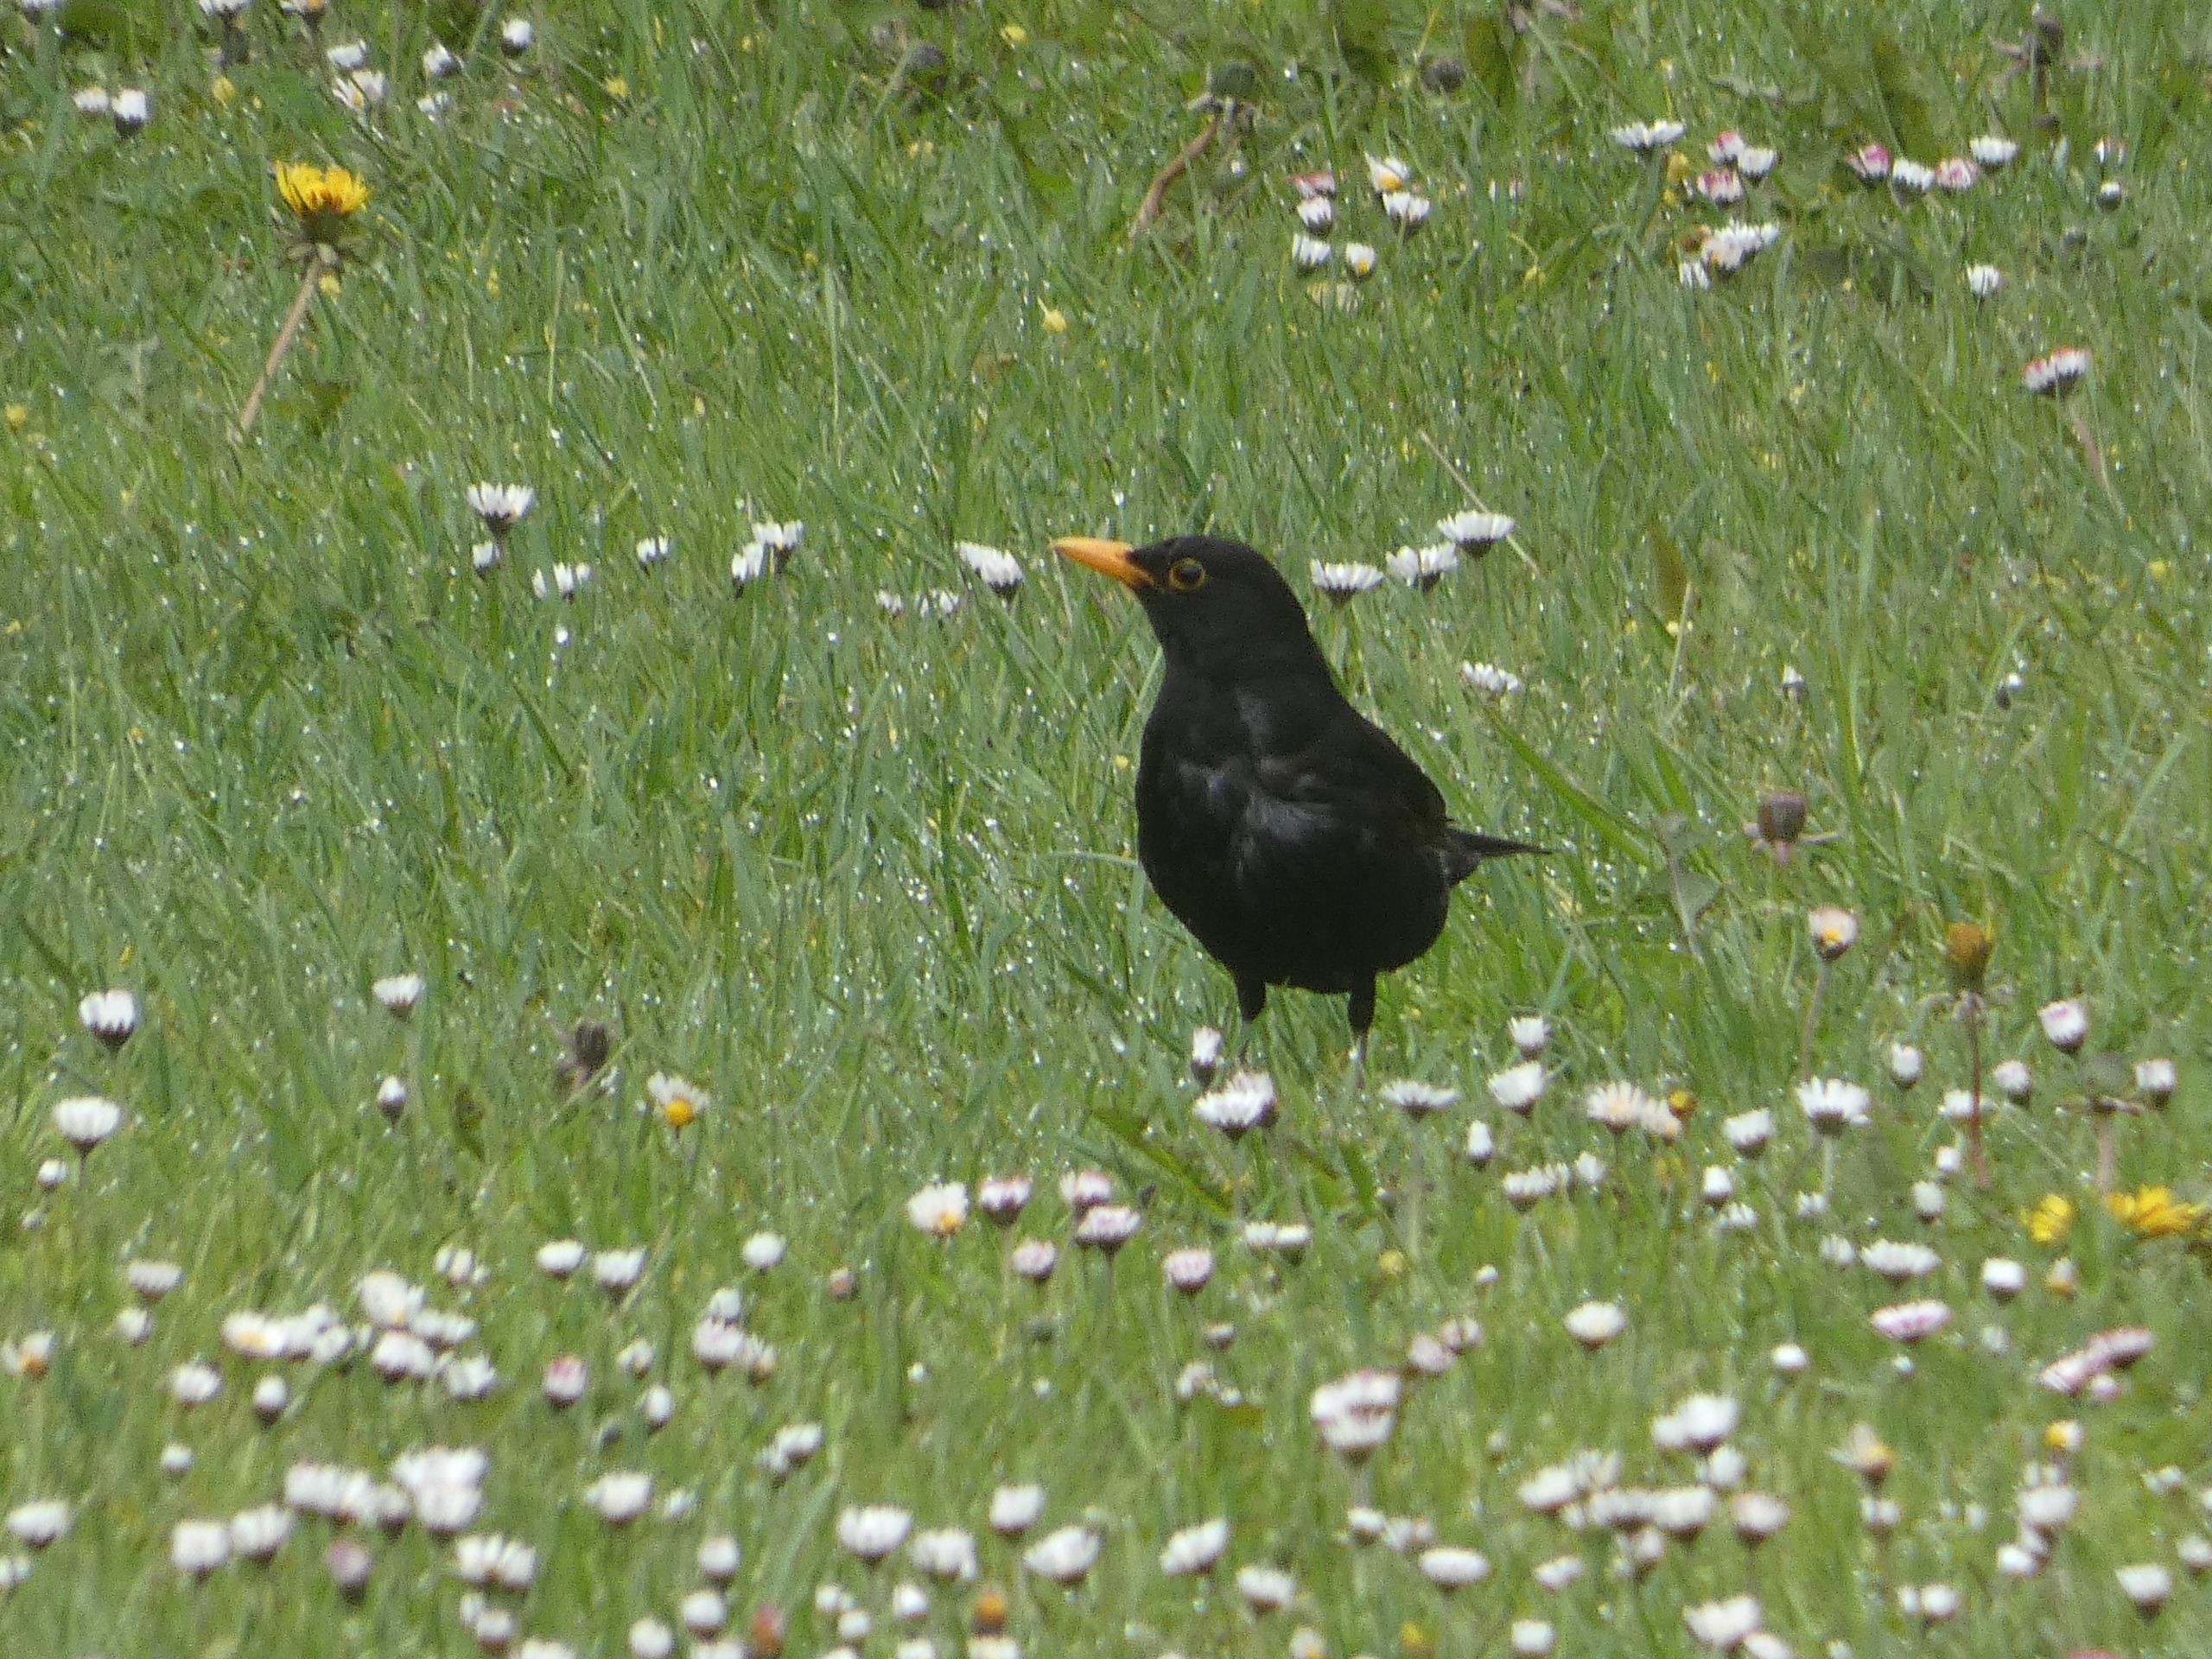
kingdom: Animalia
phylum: Chordata
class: Aves
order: Passeriformes
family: Turdidae
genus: Turdus
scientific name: Turdus merula
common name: Solsort
